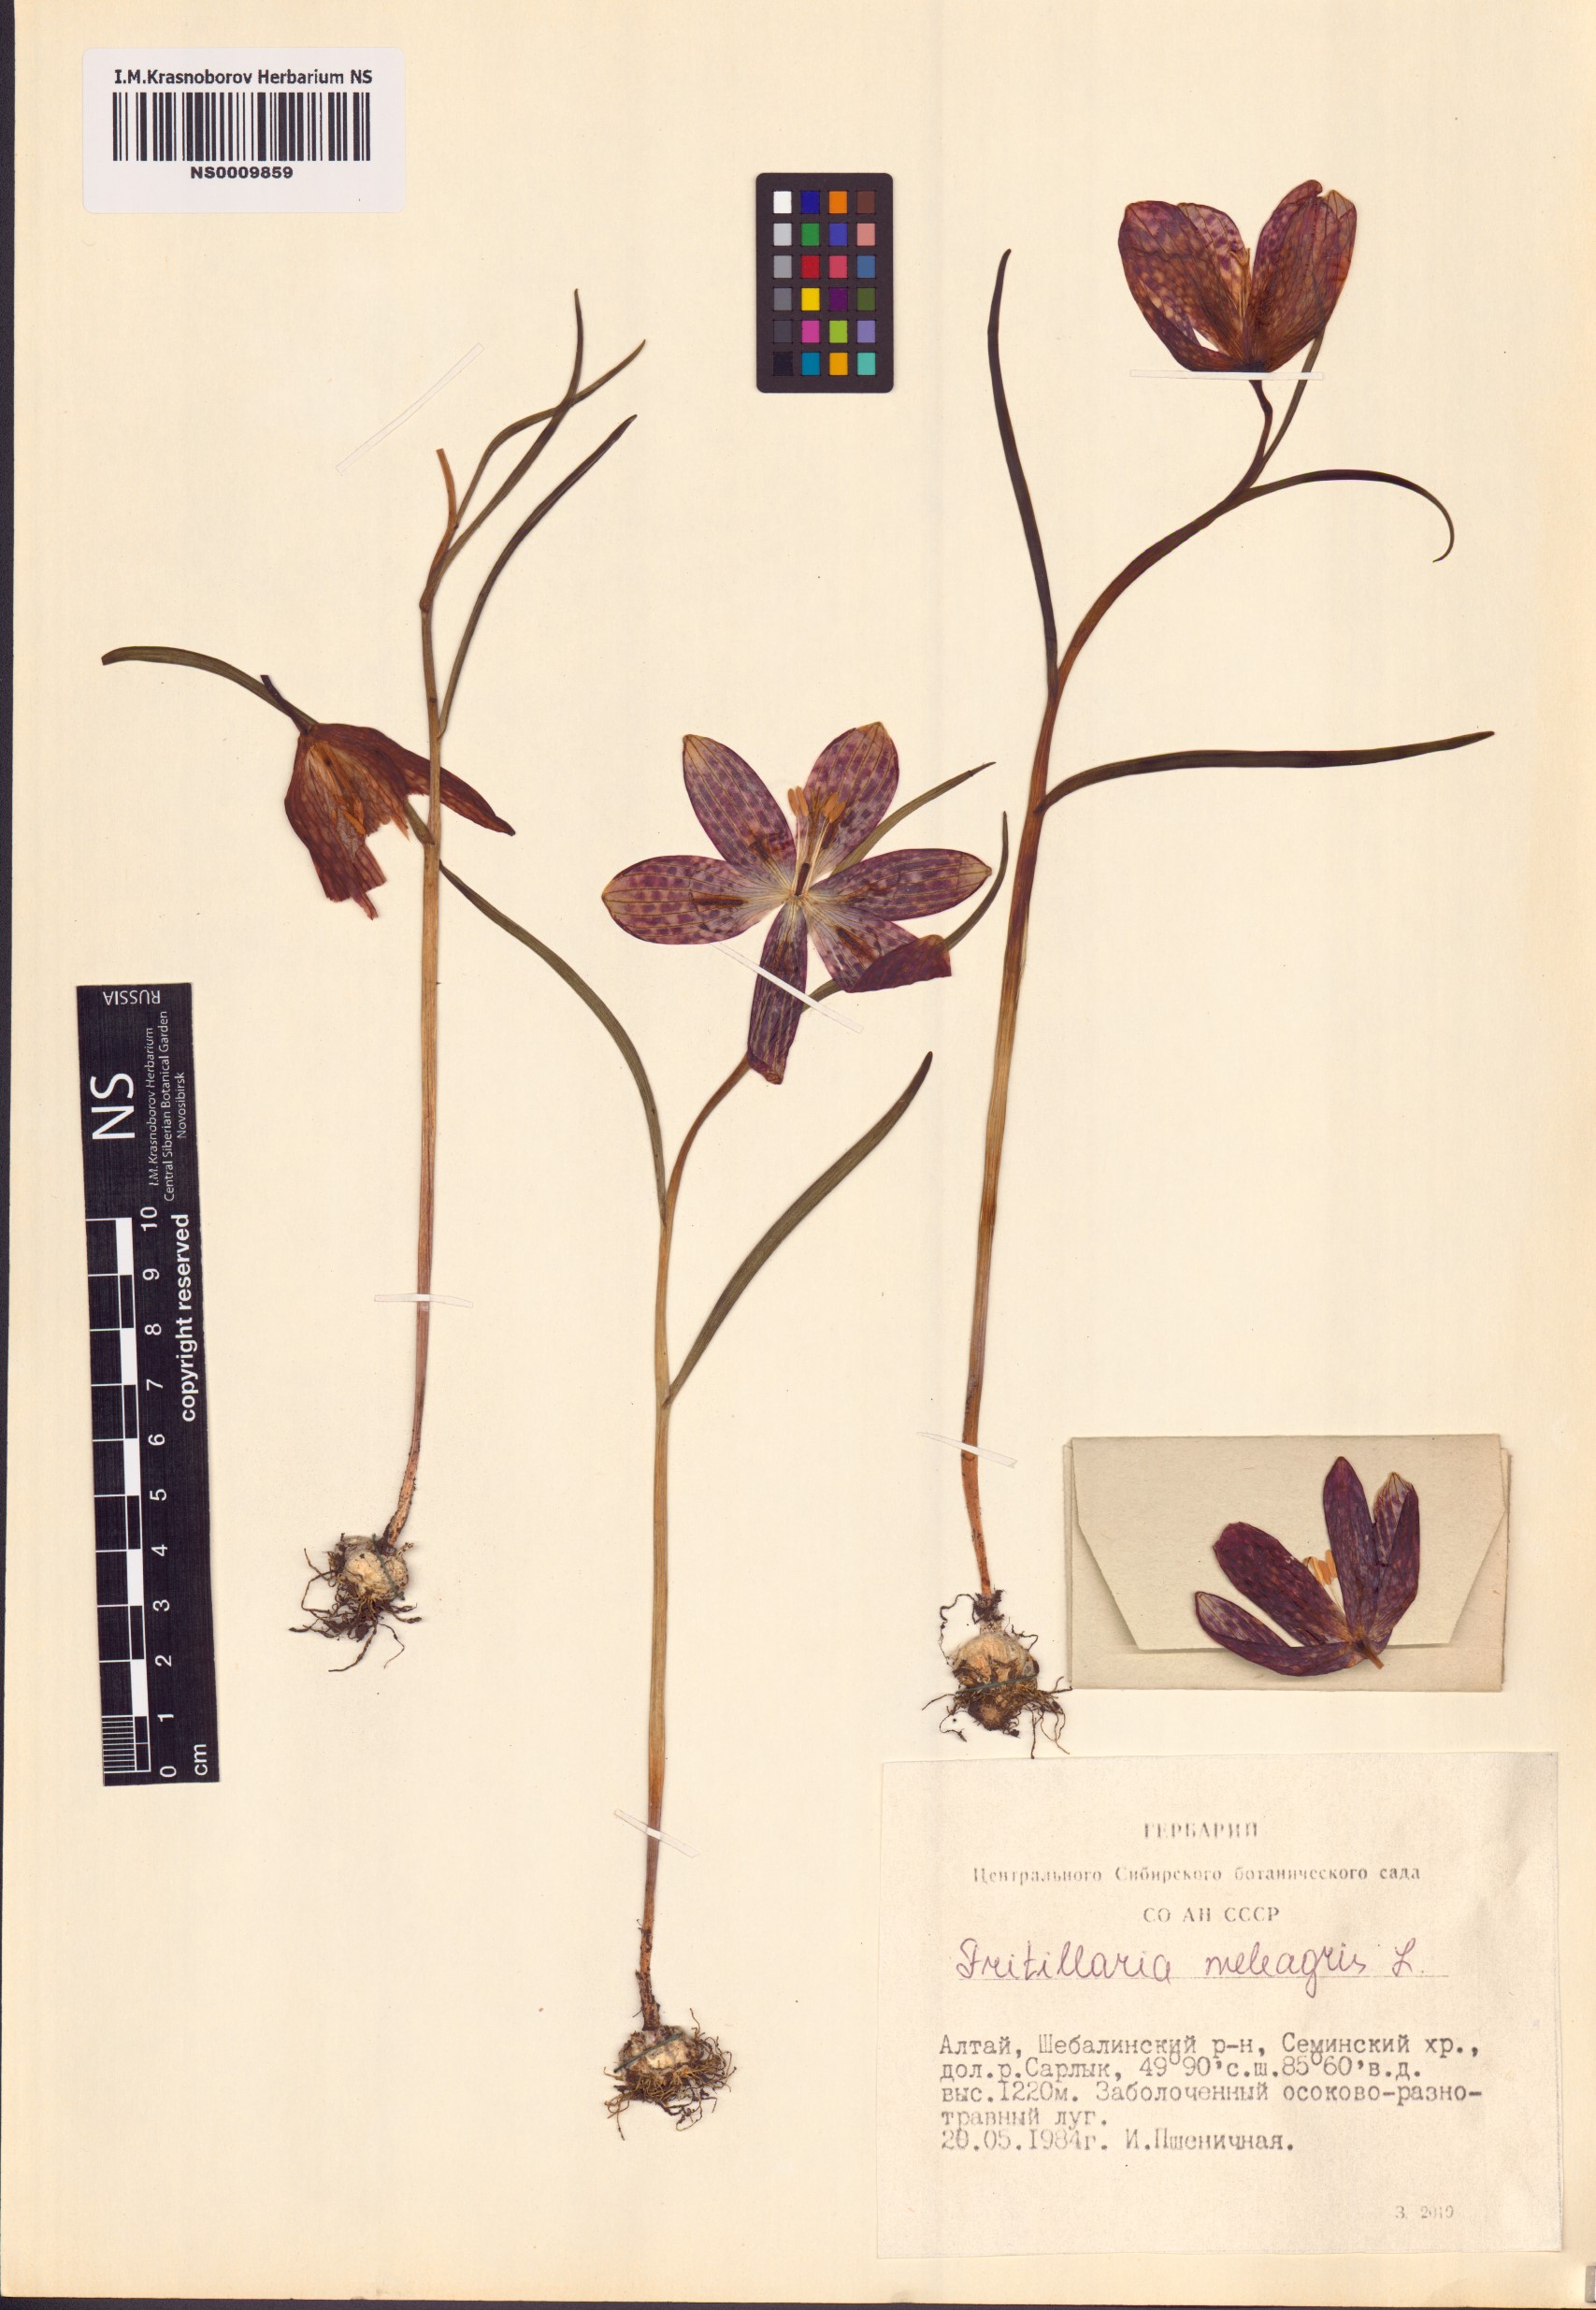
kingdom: Plantae
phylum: Tracheophyta
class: Liliopsida
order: Liliales
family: Liliaceae
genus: Fritillaria
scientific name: Fritillaria meleagris
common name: Fritillary
